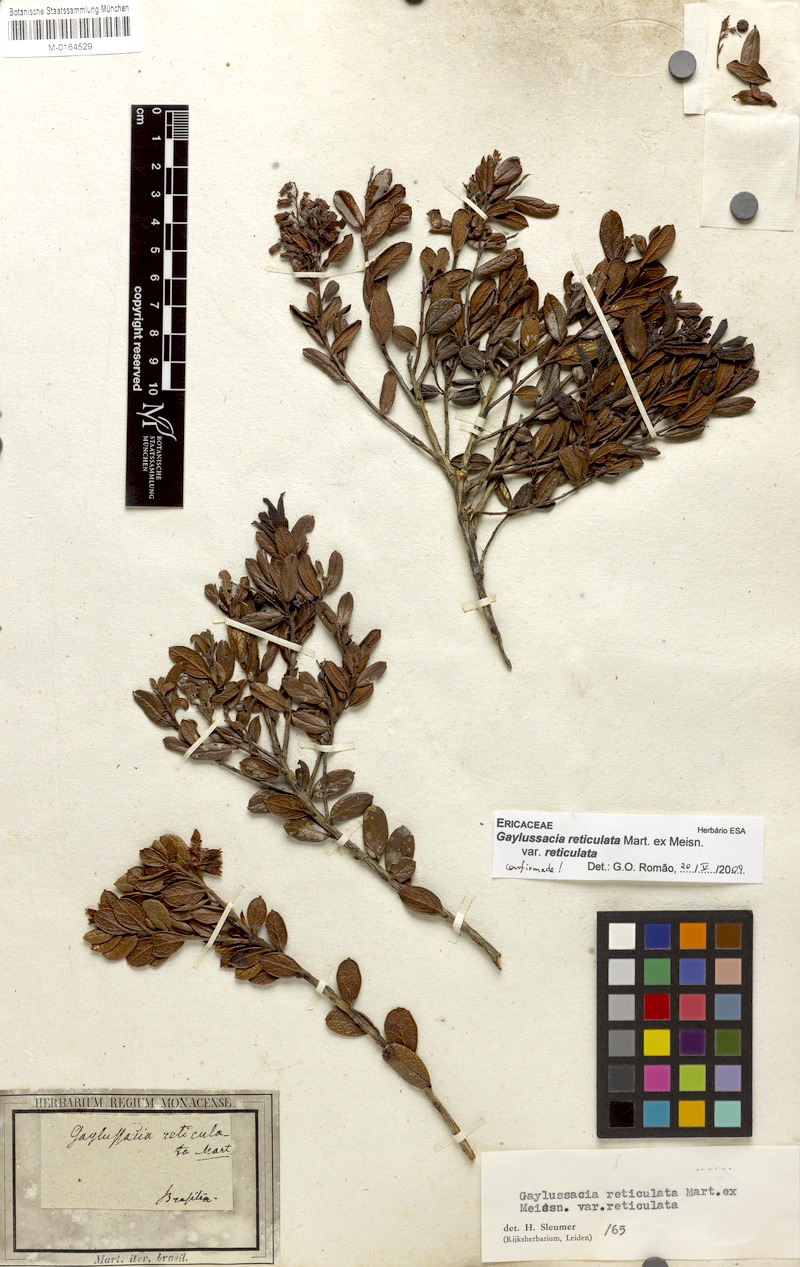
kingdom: Plantae
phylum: Tracheophyta
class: Magnoliopsida
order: Ericales
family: Ericaceae
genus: Gaylussacia
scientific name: Gaylussacia reticulata
